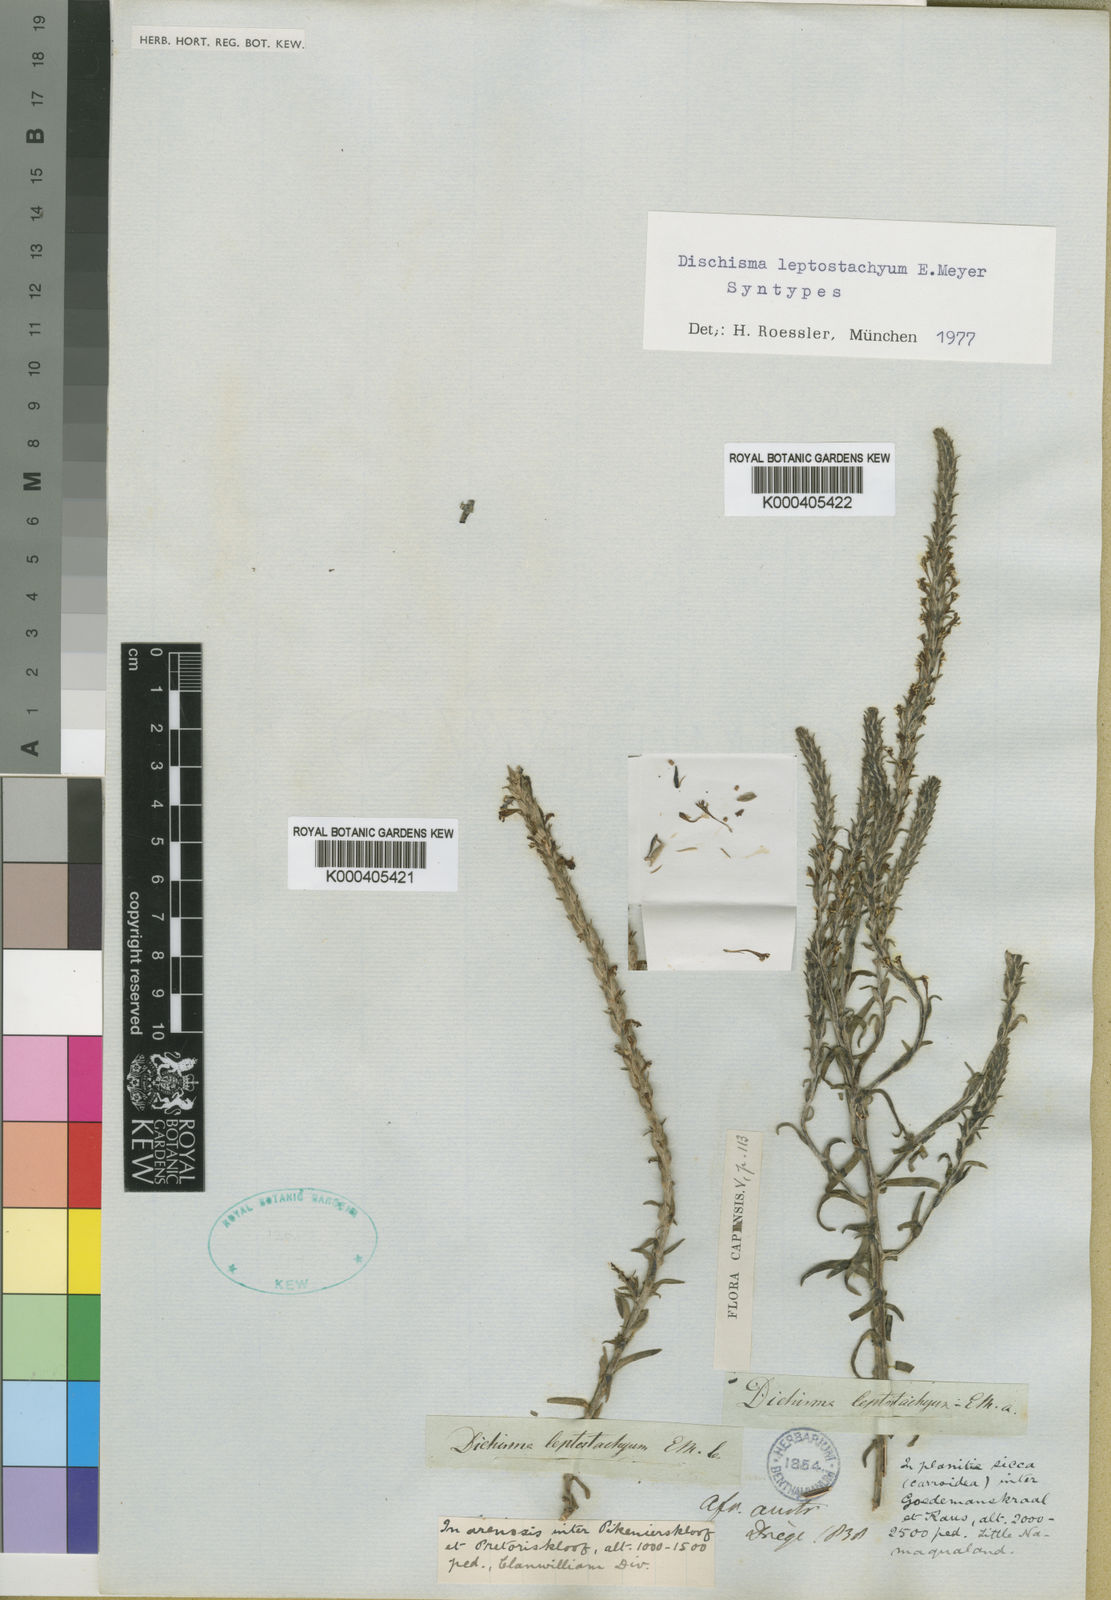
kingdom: Plantae
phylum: Tracheophyta
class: Magnoliopsida
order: Lamiales
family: Scrophulariaceae
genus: Dischisma
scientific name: Dischisma leptostachyum
